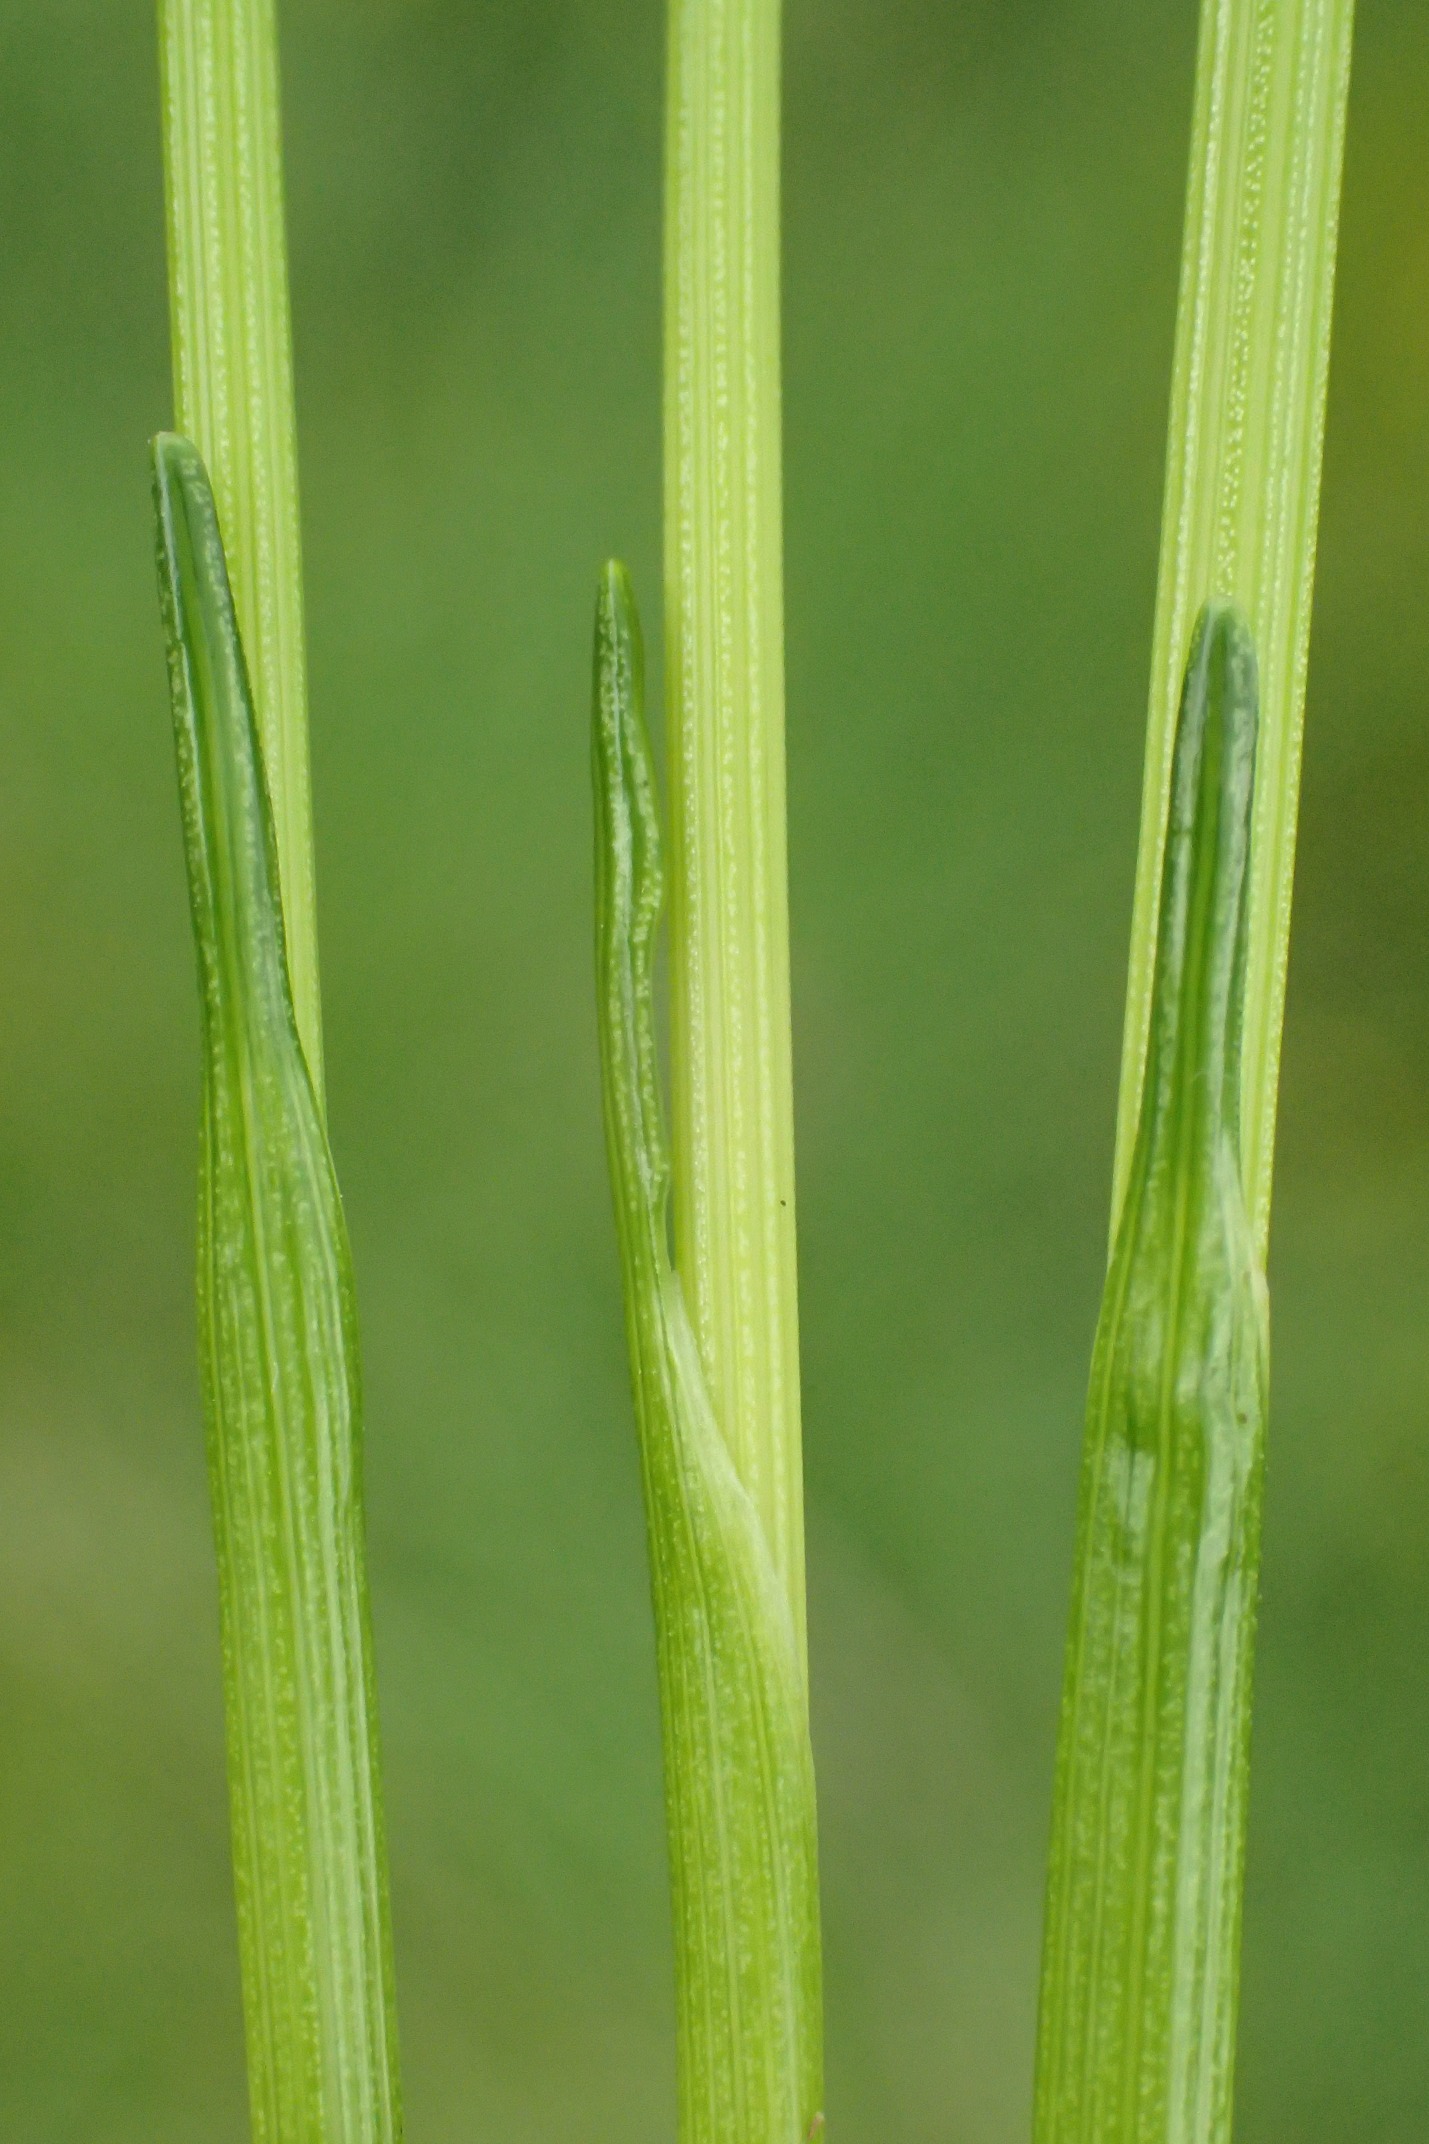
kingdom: Plantae
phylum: Tracheophyta
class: Liliopsida
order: Poales
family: Cyperaceae
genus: Trichophorum
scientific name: Trichophorum cespitosum
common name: Vestlig tuekogleaks
